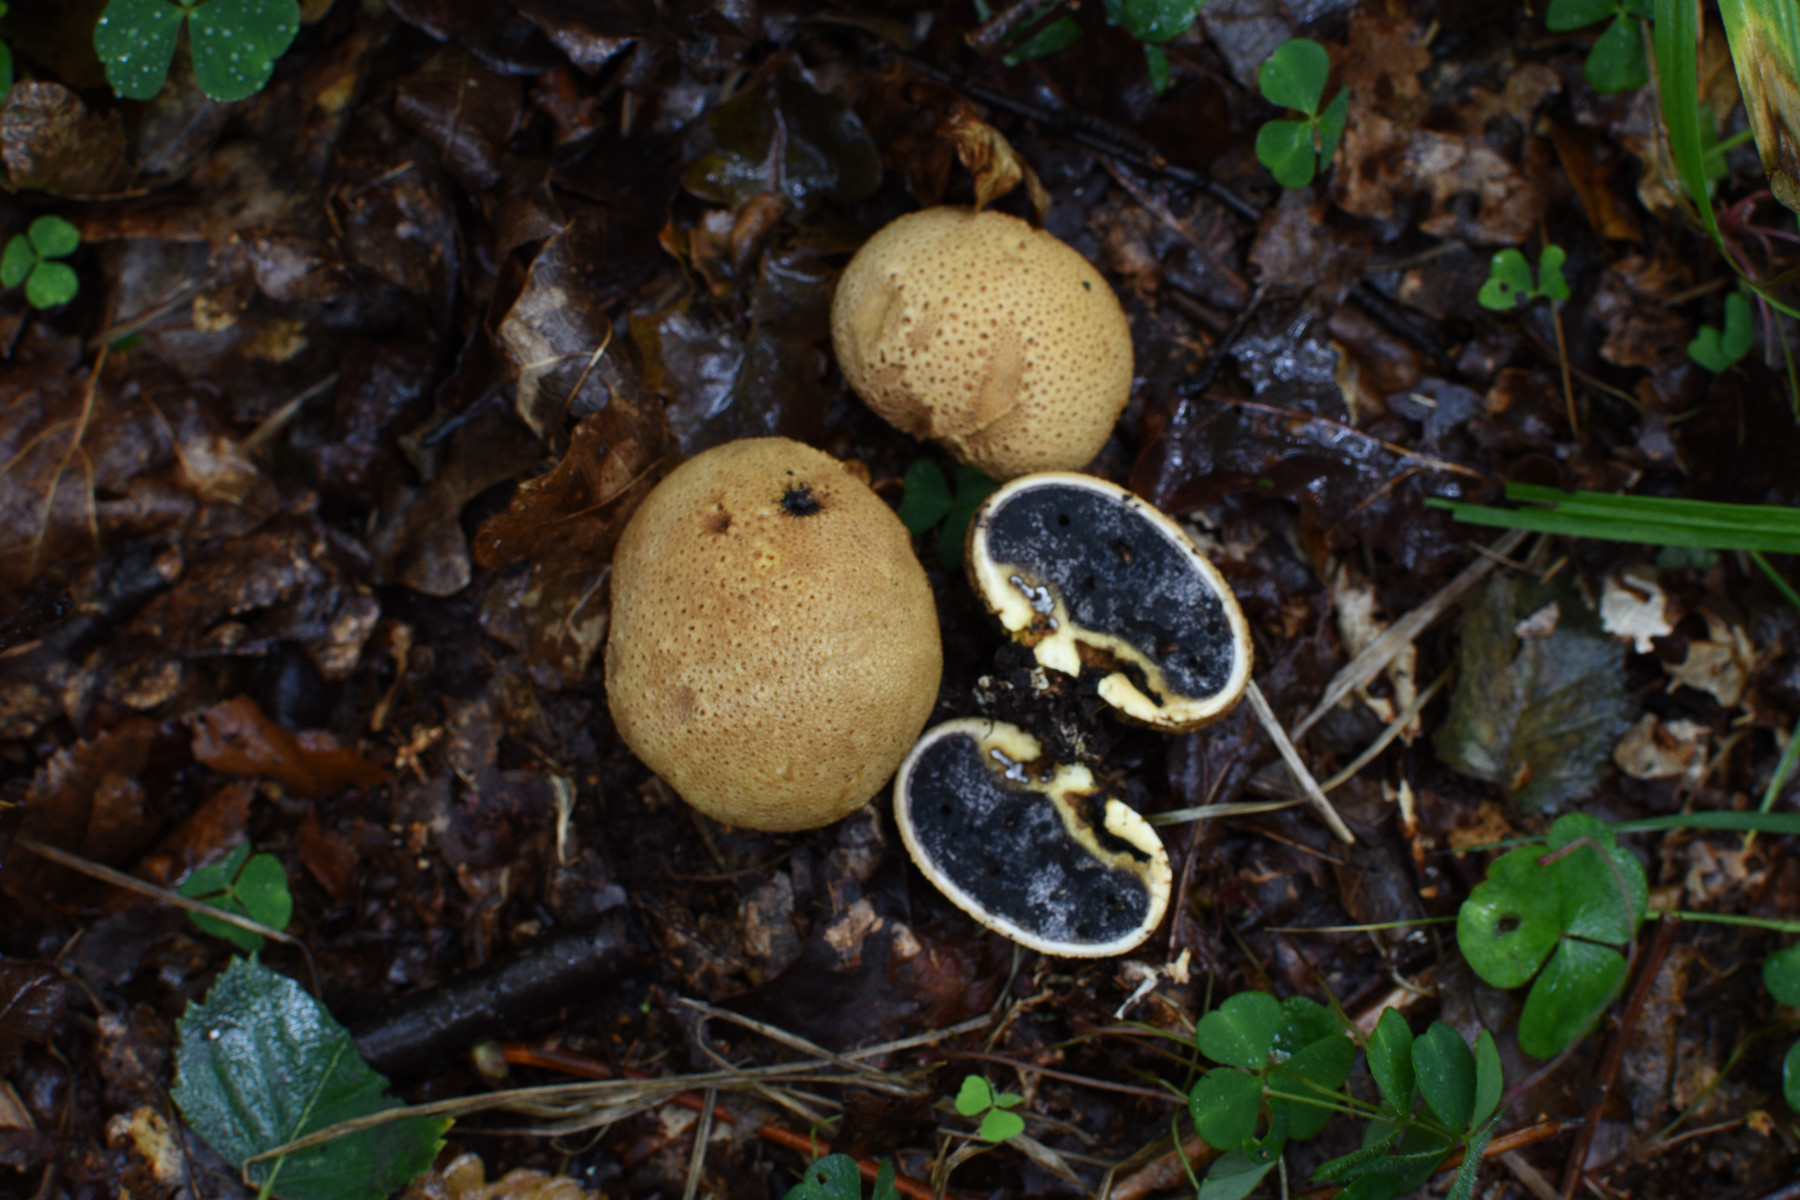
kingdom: Fungi
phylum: Basidiomycota
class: Agaricomycetes
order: Boletales
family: Sclerodermataceae
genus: Scleroderma
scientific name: Scleroderma citrinum
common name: almindelig bruskbold
